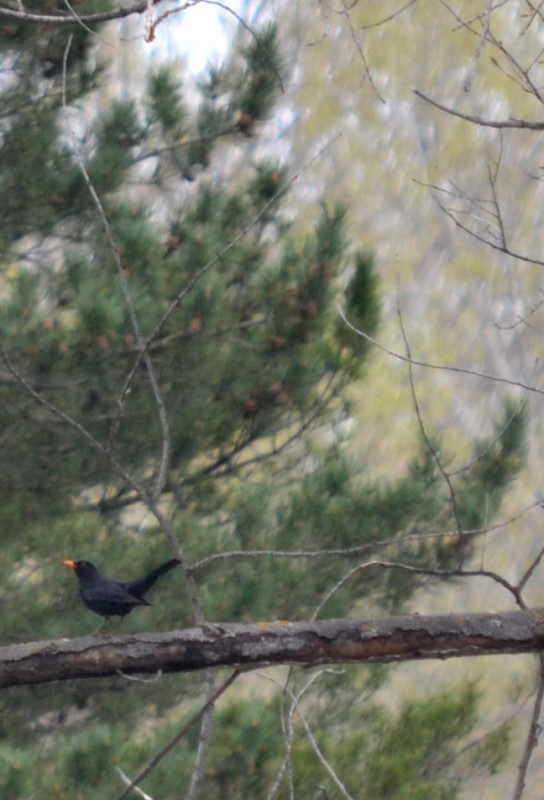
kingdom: Animalia
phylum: Chordata
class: Aves
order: Passeriformes
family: Turdidae
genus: Turdus
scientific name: Turdus merula
